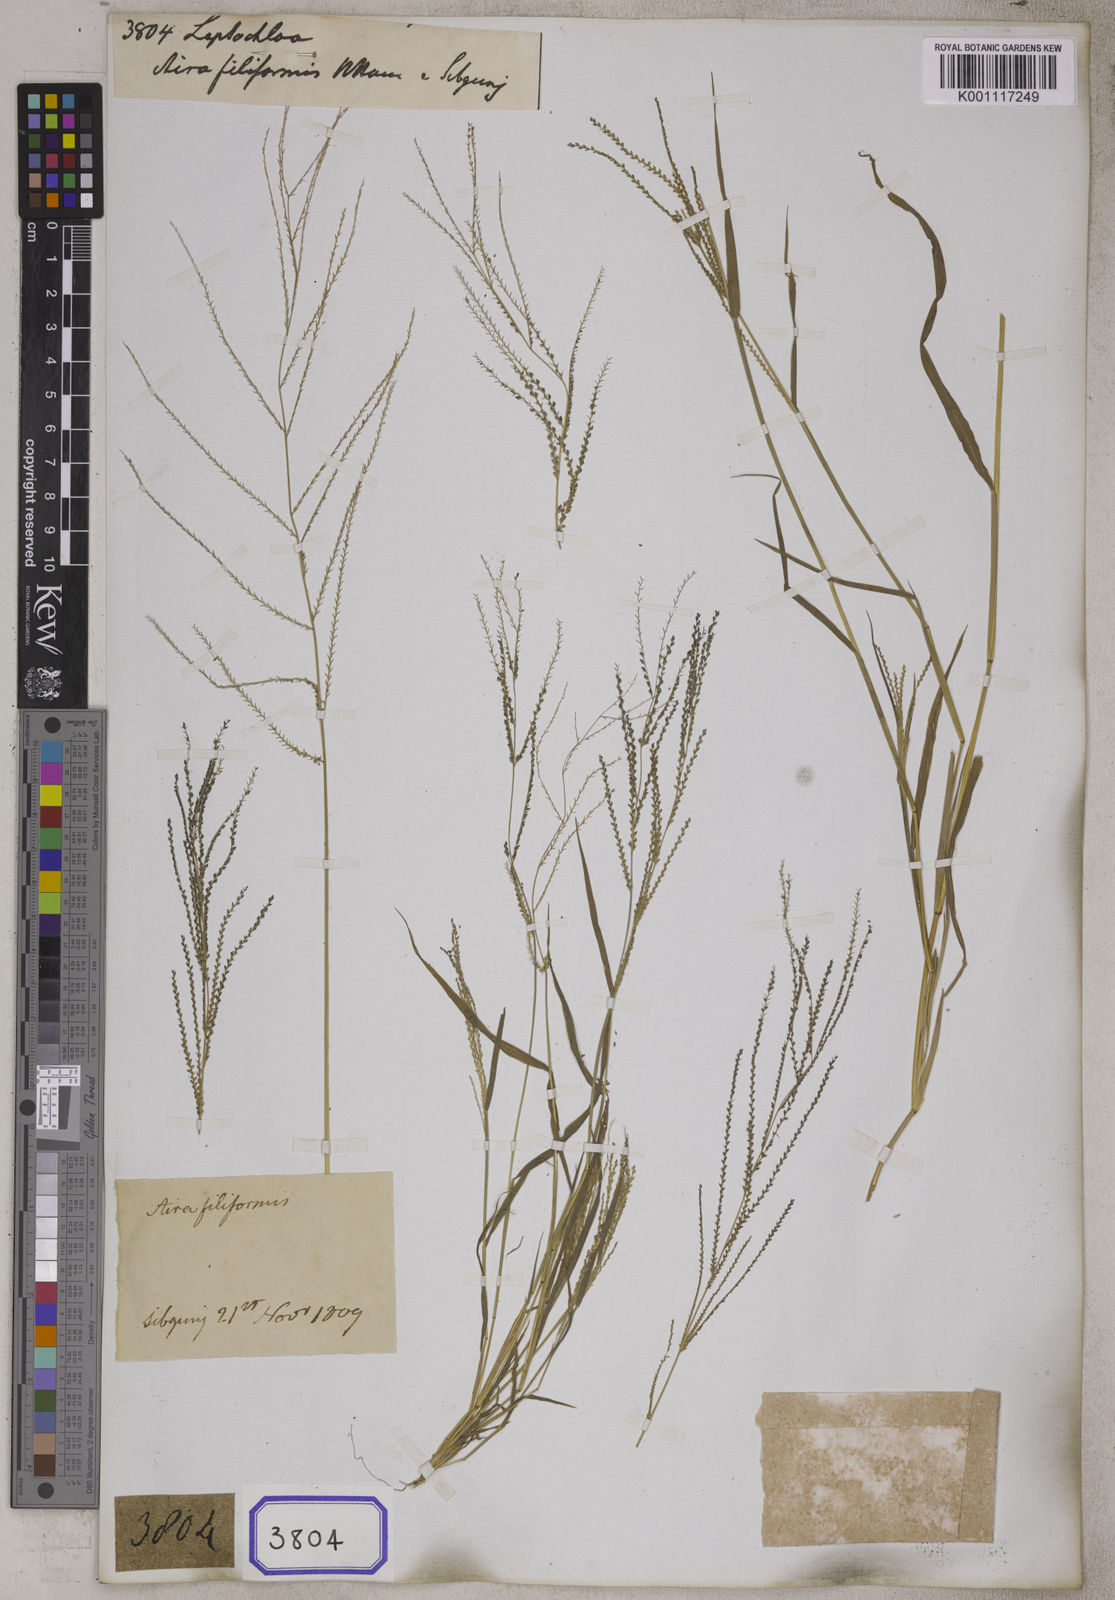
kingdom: Plantae
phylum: Tracheophyta
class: Liliopsida
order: Poales
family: Poaceae
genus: Leptochloa
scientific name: Leptochloa
